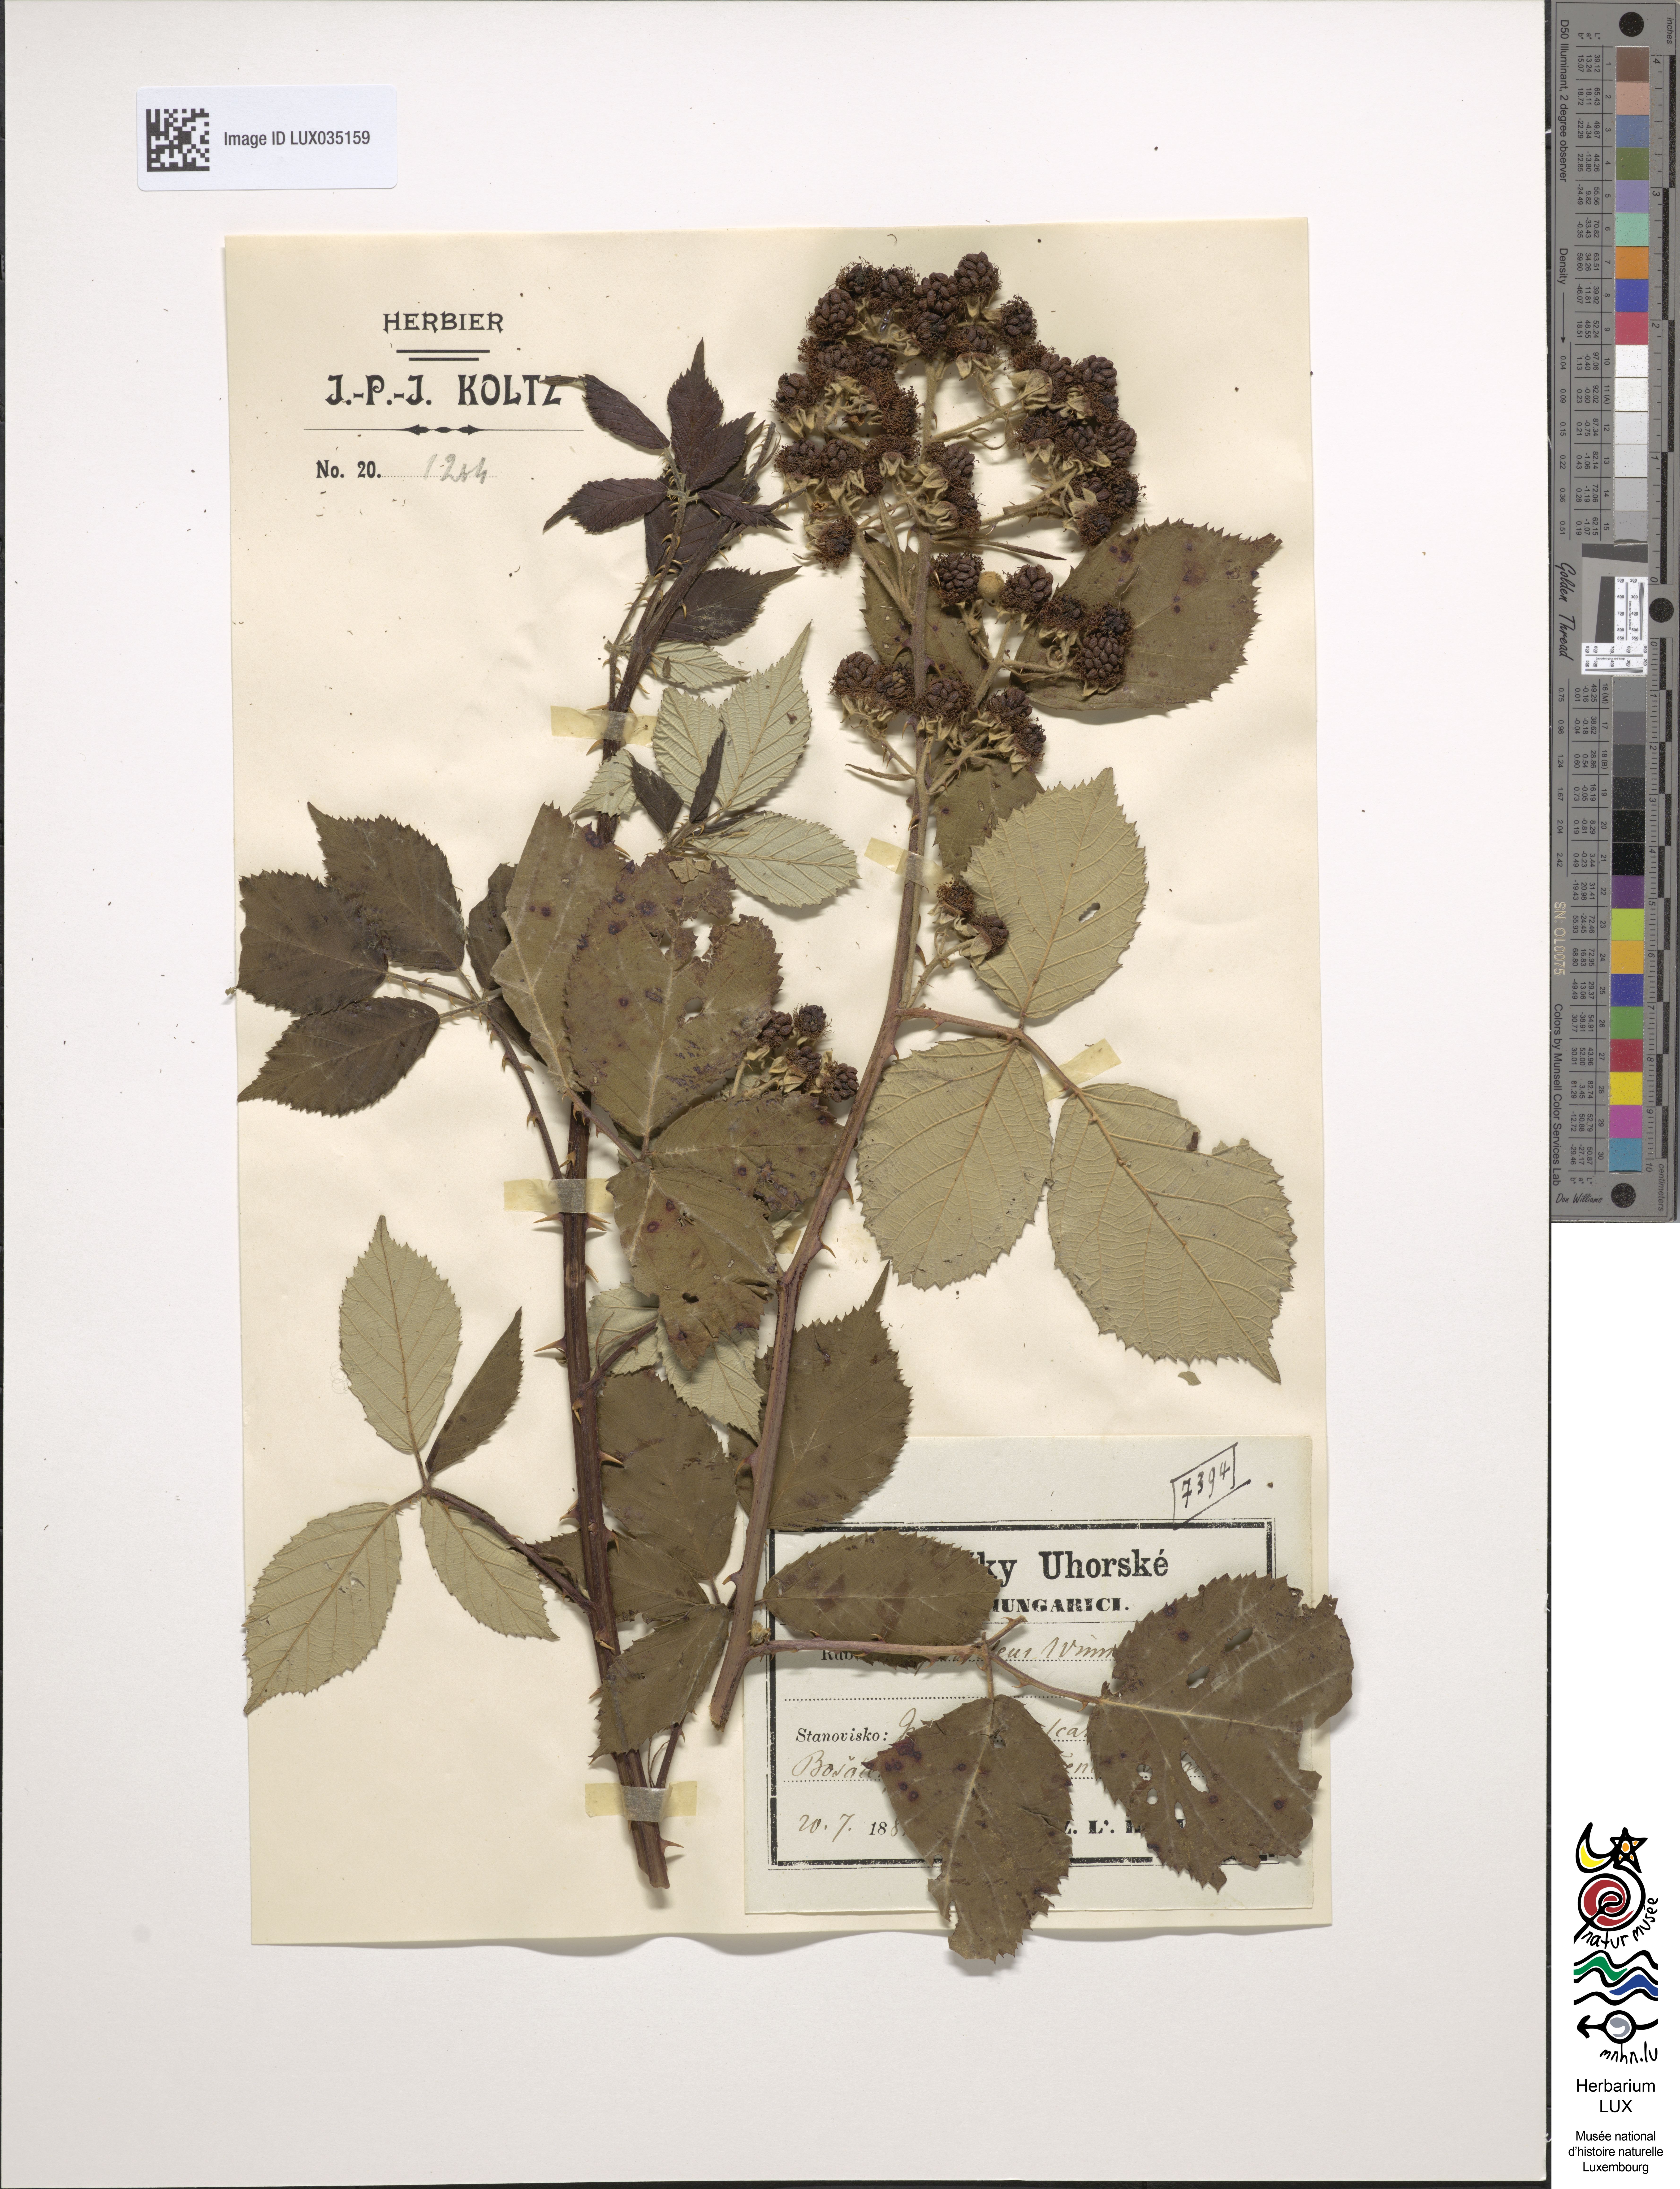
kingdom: Plantae
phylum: Tracheophyta
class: Magnoliopsida
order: Rosales
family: Rosaceae
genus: Rubus
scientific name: Rubus silesiacus
